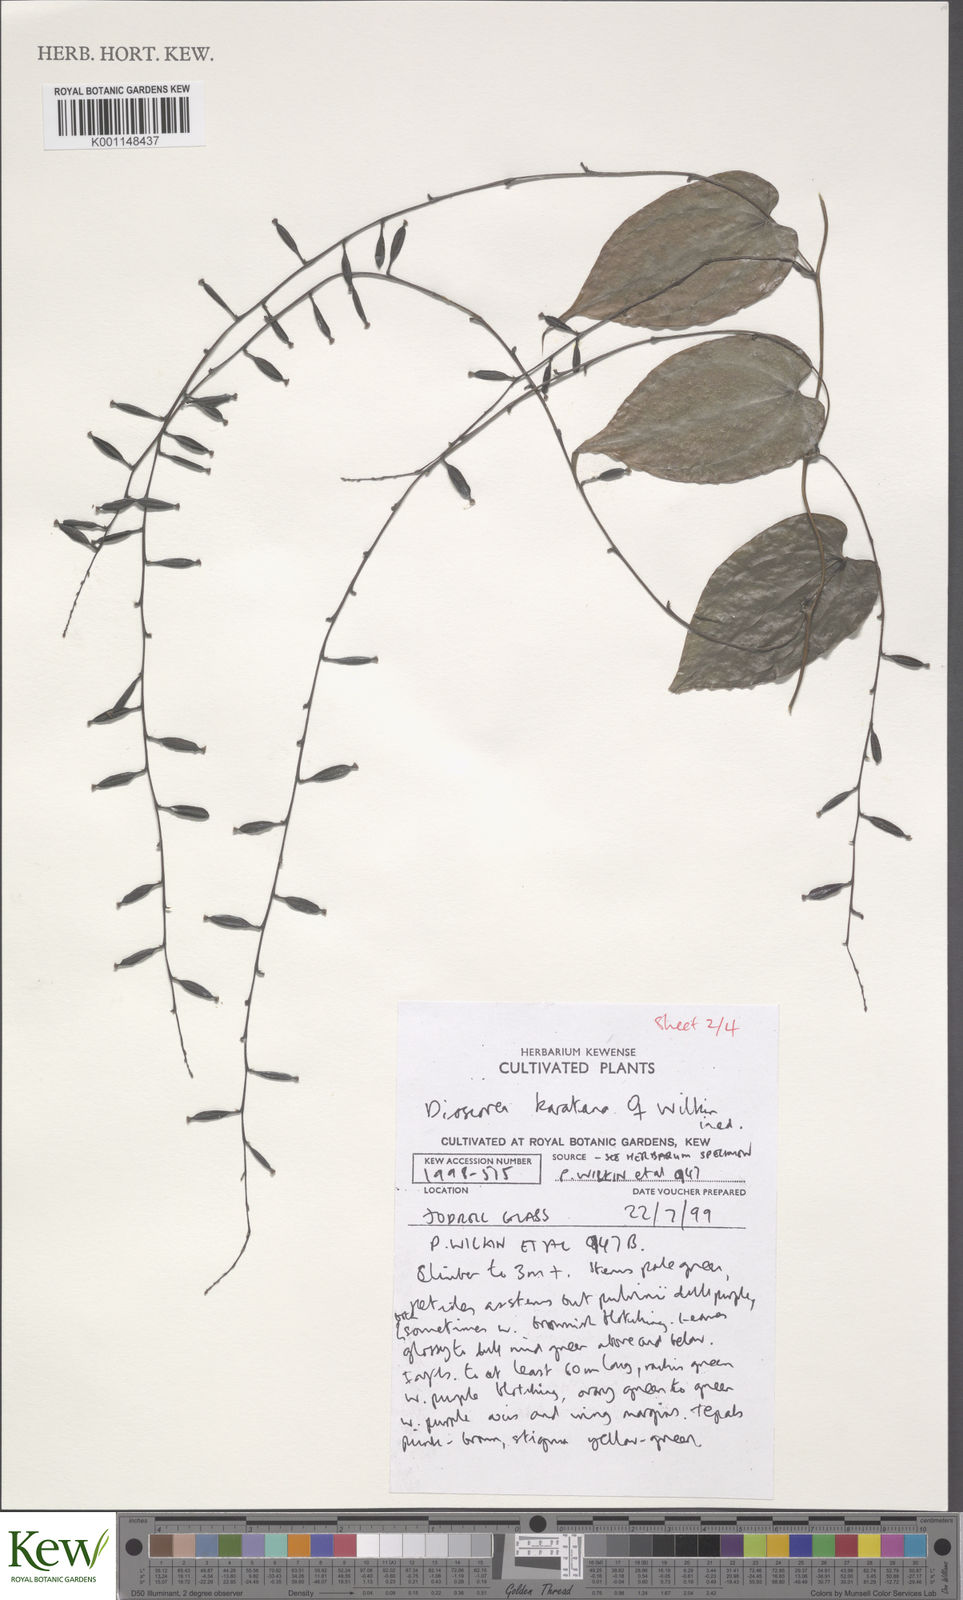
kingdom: Plantae
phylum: Tracheophyta
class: Liliopsida
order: Dioscoreales
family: Dioscoreaceae
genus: Dioscorea
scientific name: Dioscorea madecassa
